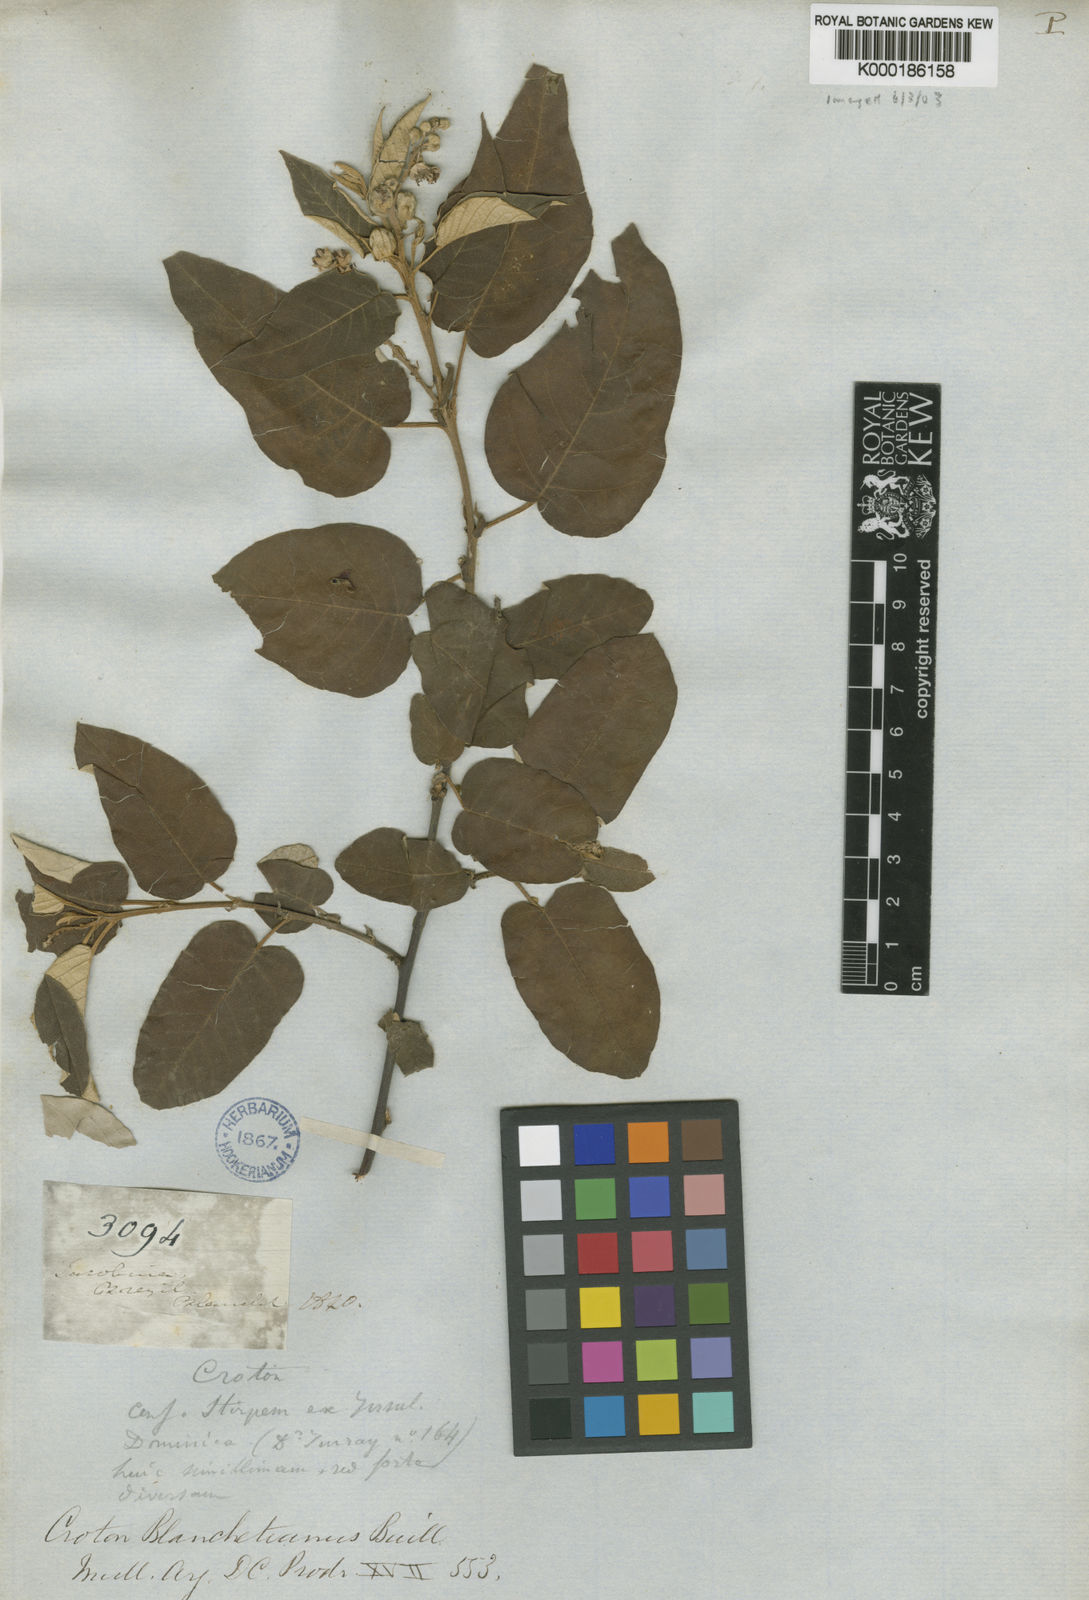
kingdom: Plantae
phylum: Tracheophyta
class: Magnoliopsida
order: Malpighiales
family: Euphorbiaceae
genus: Croton
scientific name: Croton blanchetianus
